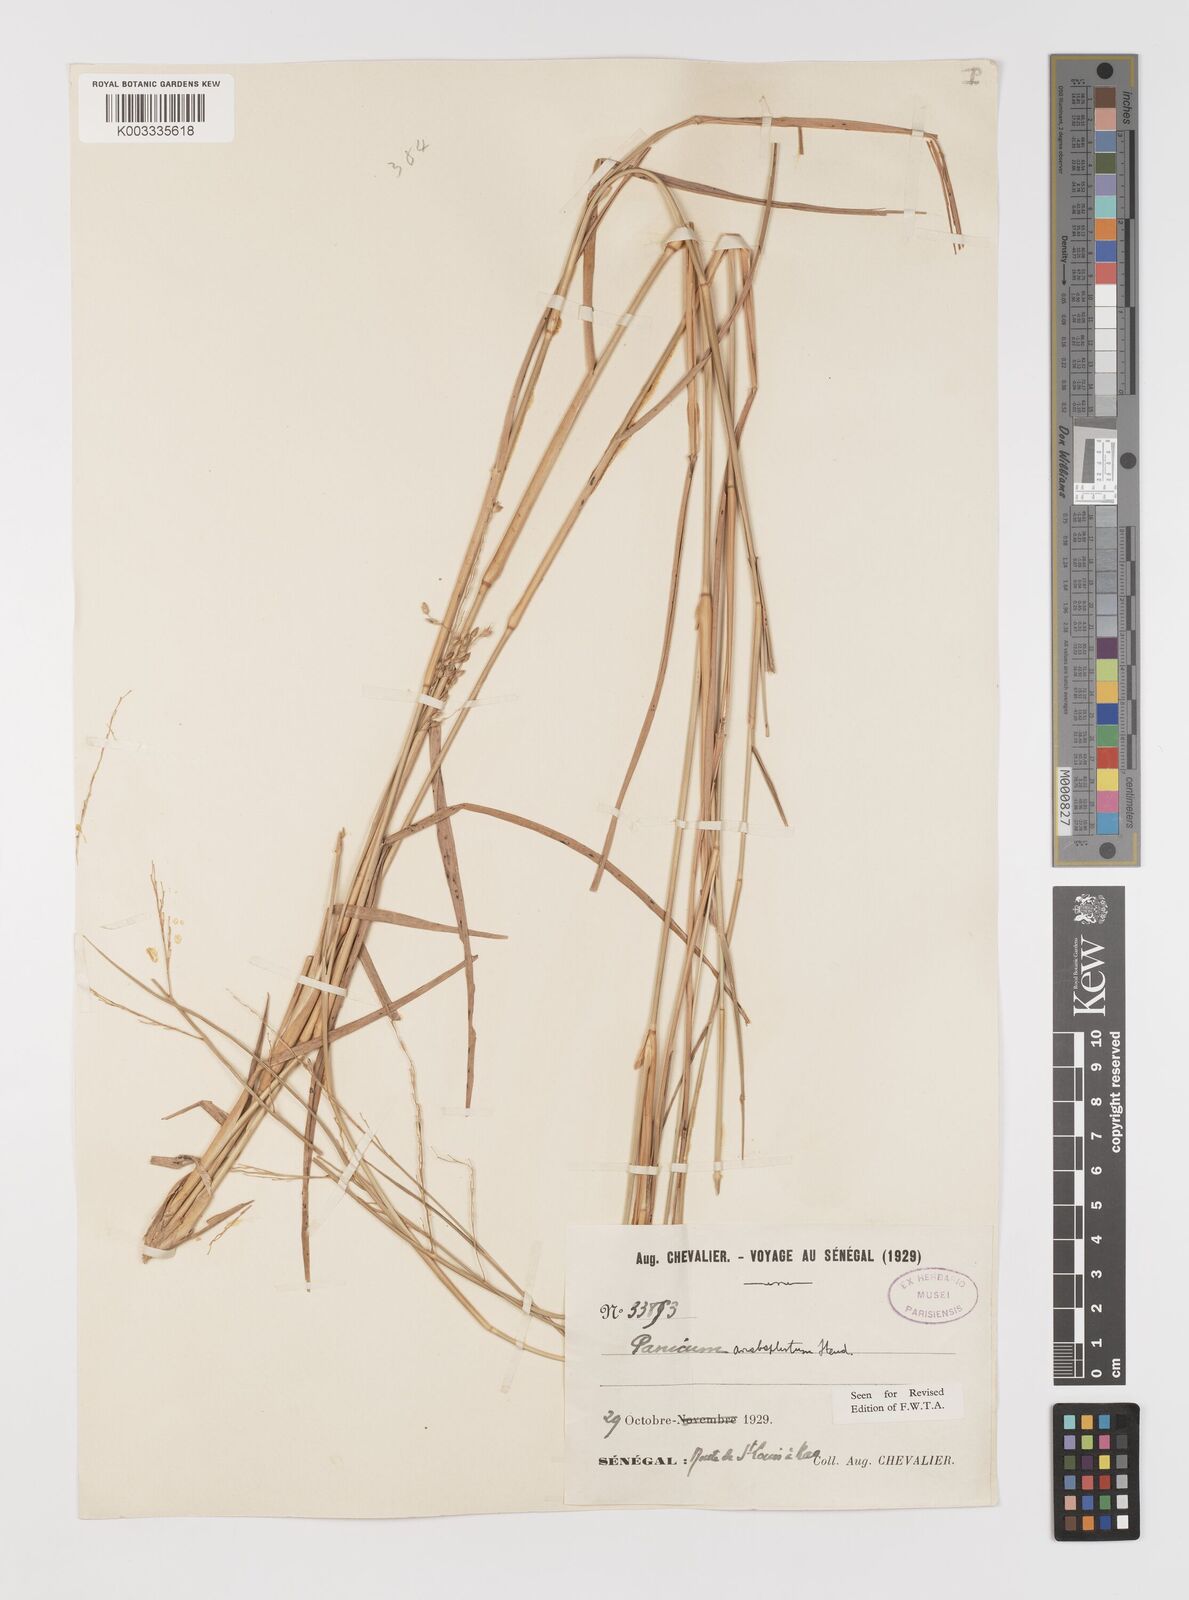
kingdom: Plantae
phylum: Tracheophyta
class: Liliopsida
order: Poales
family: Poaceae
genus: Panicum
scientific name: Panicum anabaptistum
